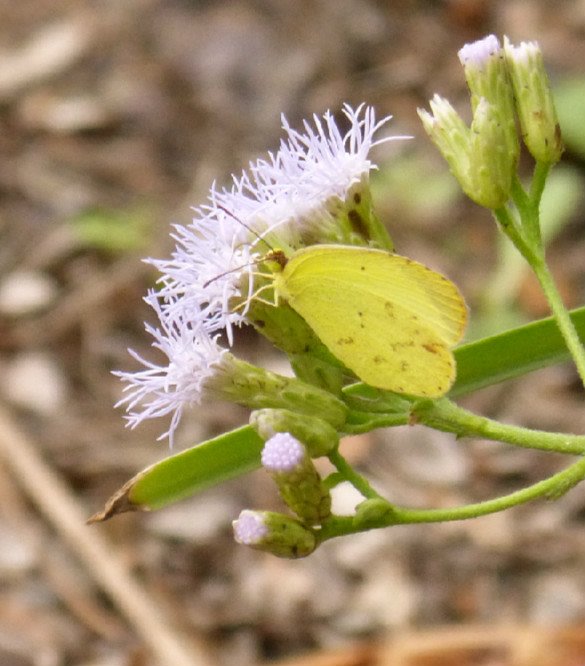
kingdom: Animalia
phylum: Arthropoda
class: Insecta
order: Lepidoptera
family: Pieridae
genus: Pyrisitia
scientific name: Pyrisitia nise
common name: Mimosa Yellow
